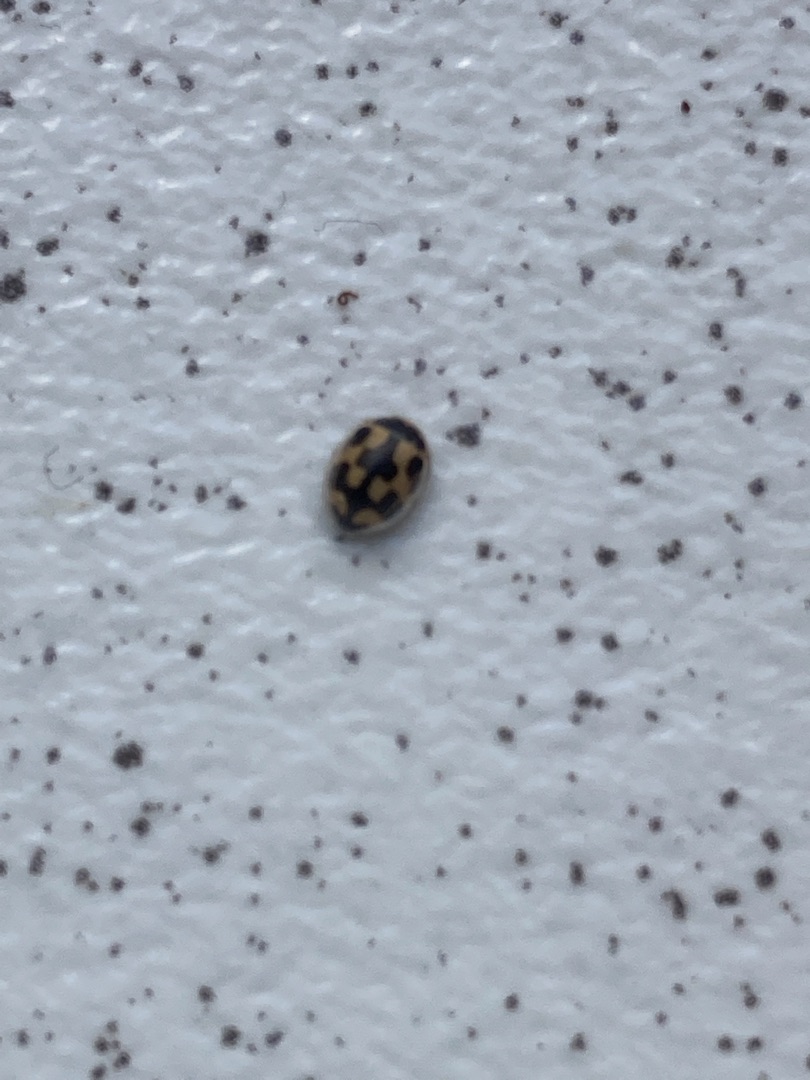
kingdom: Animalia
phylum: Arthropoda
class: Insecta
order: Coleoptera
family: Coccinellidae
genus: Propylaea
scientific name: Propylaea quatuordecimpunctata
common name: Skakbræt
